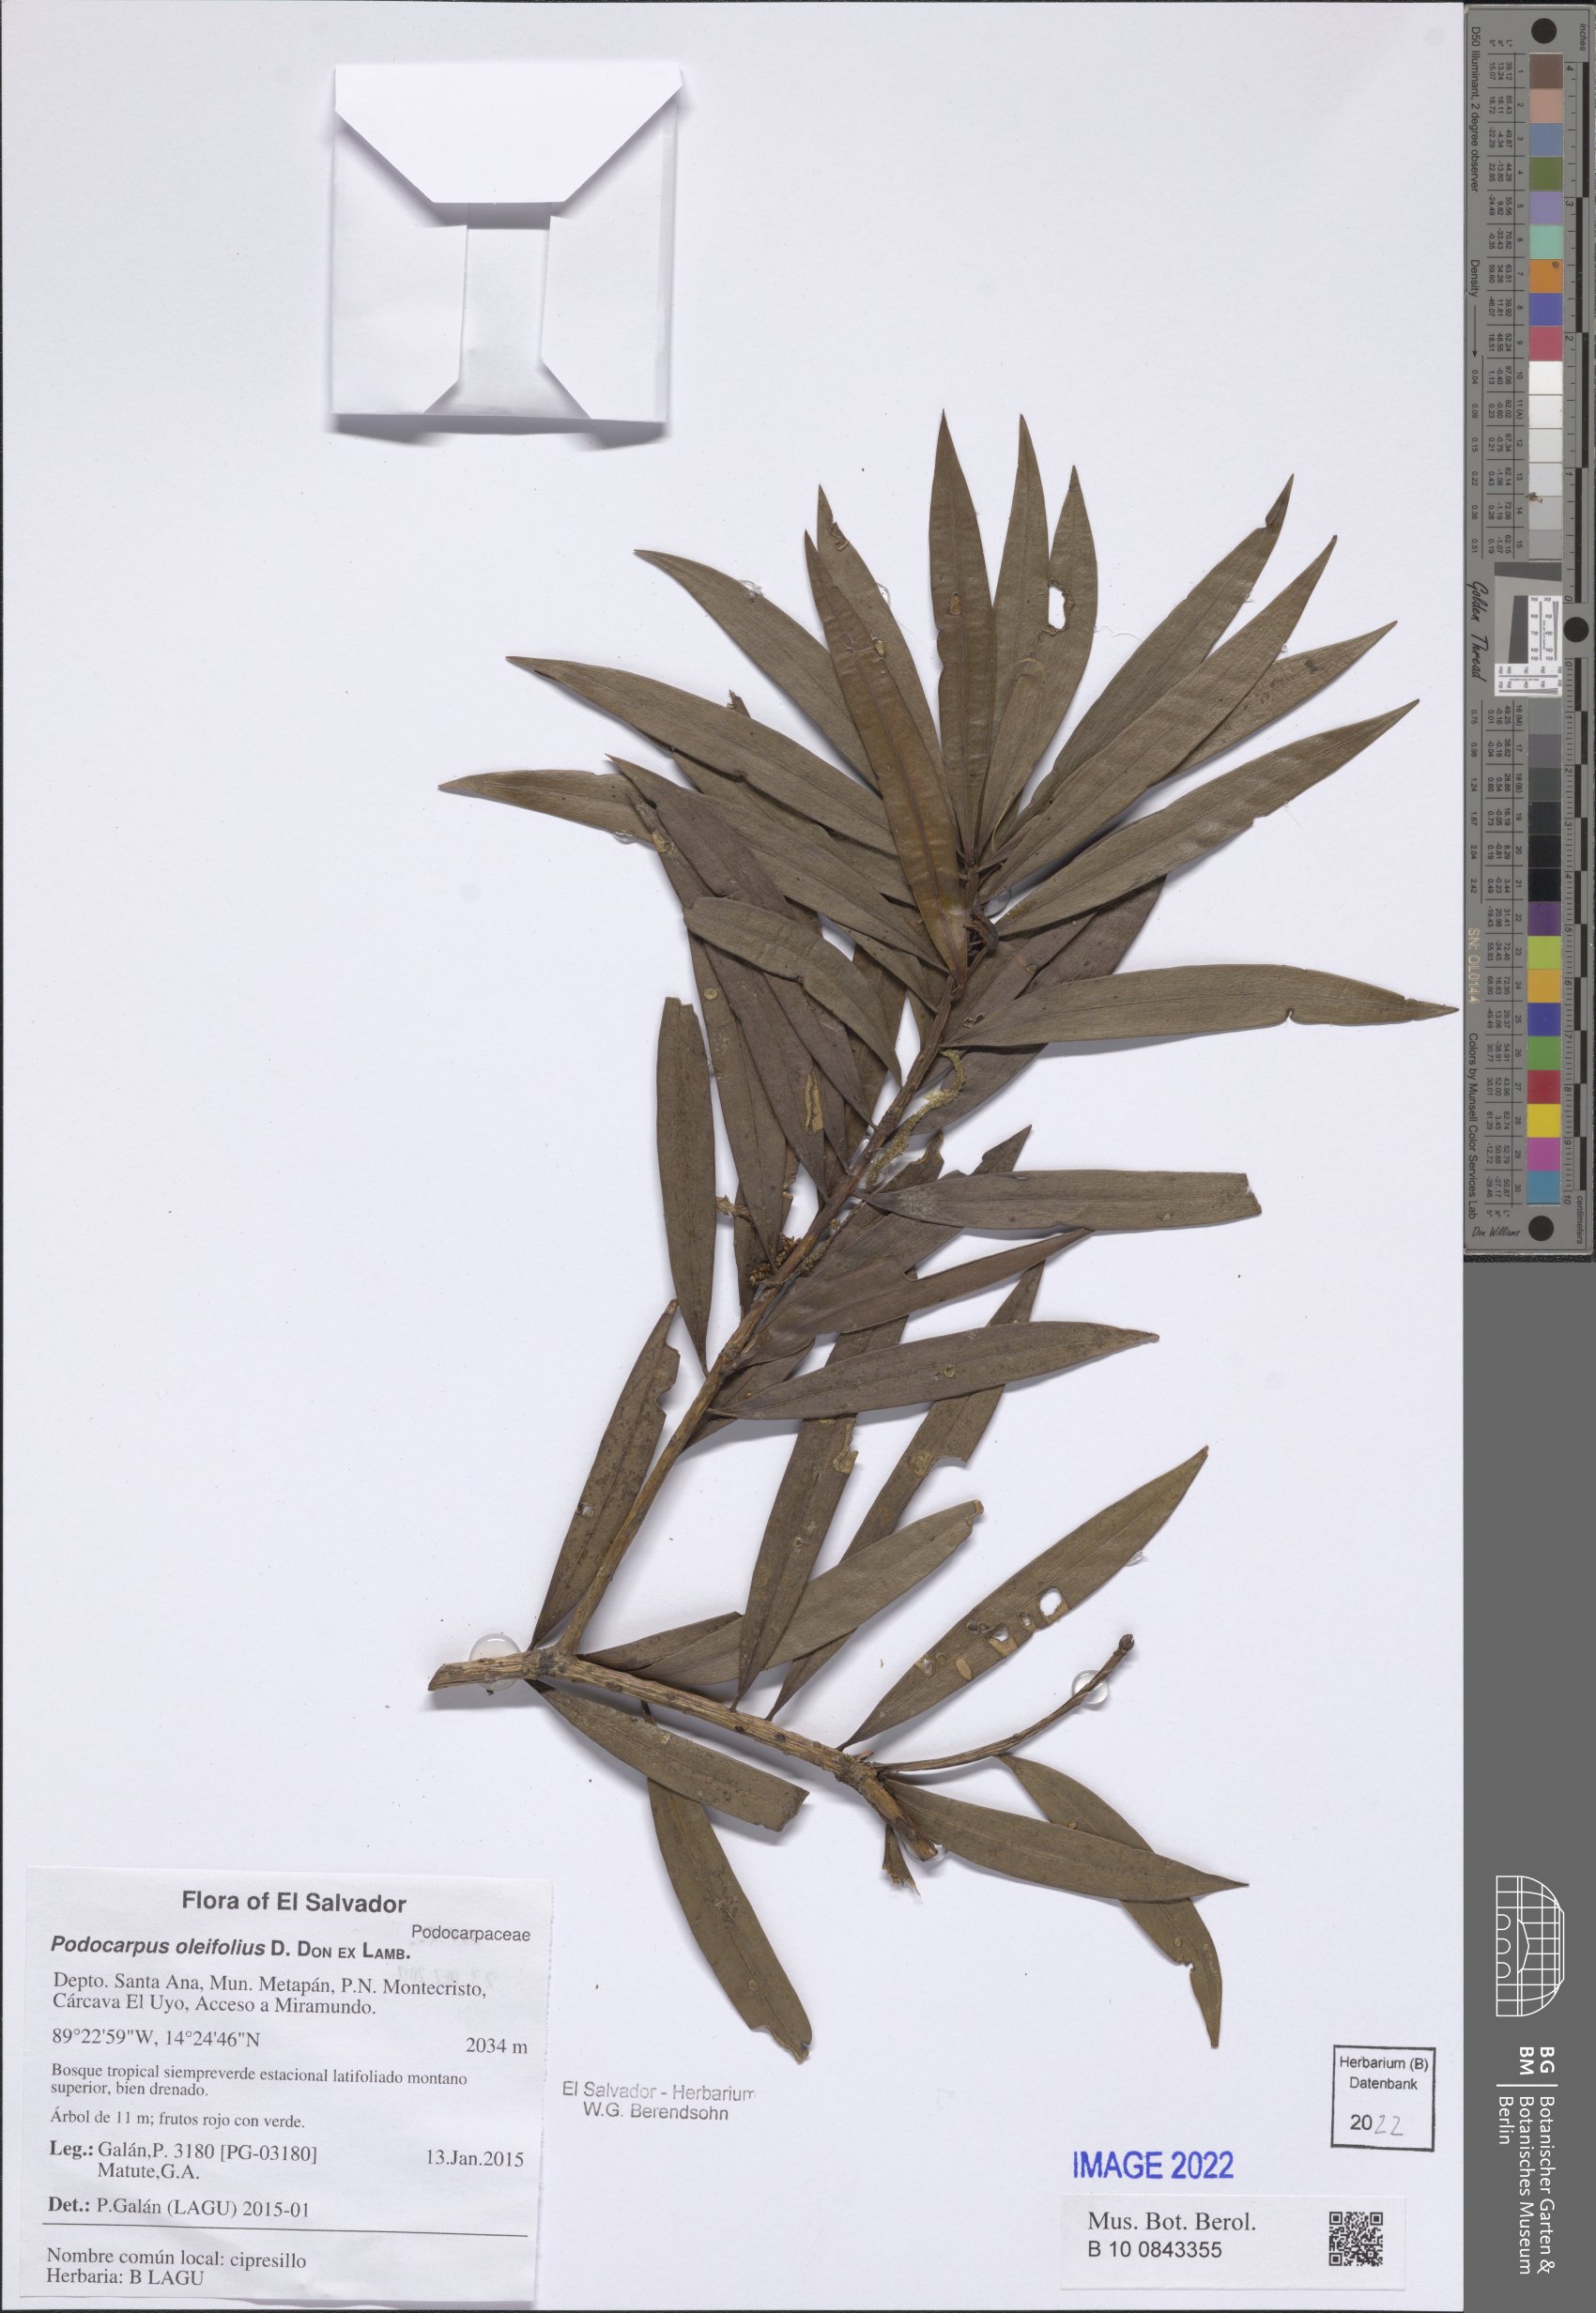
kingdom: Plantae
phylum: Tracheophyta
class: Pinopsida
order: Pinales
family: Podocarpaceae
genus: Podocarpus
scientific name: Podocarpus oleifolius
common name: Olive-leaf podoberry
